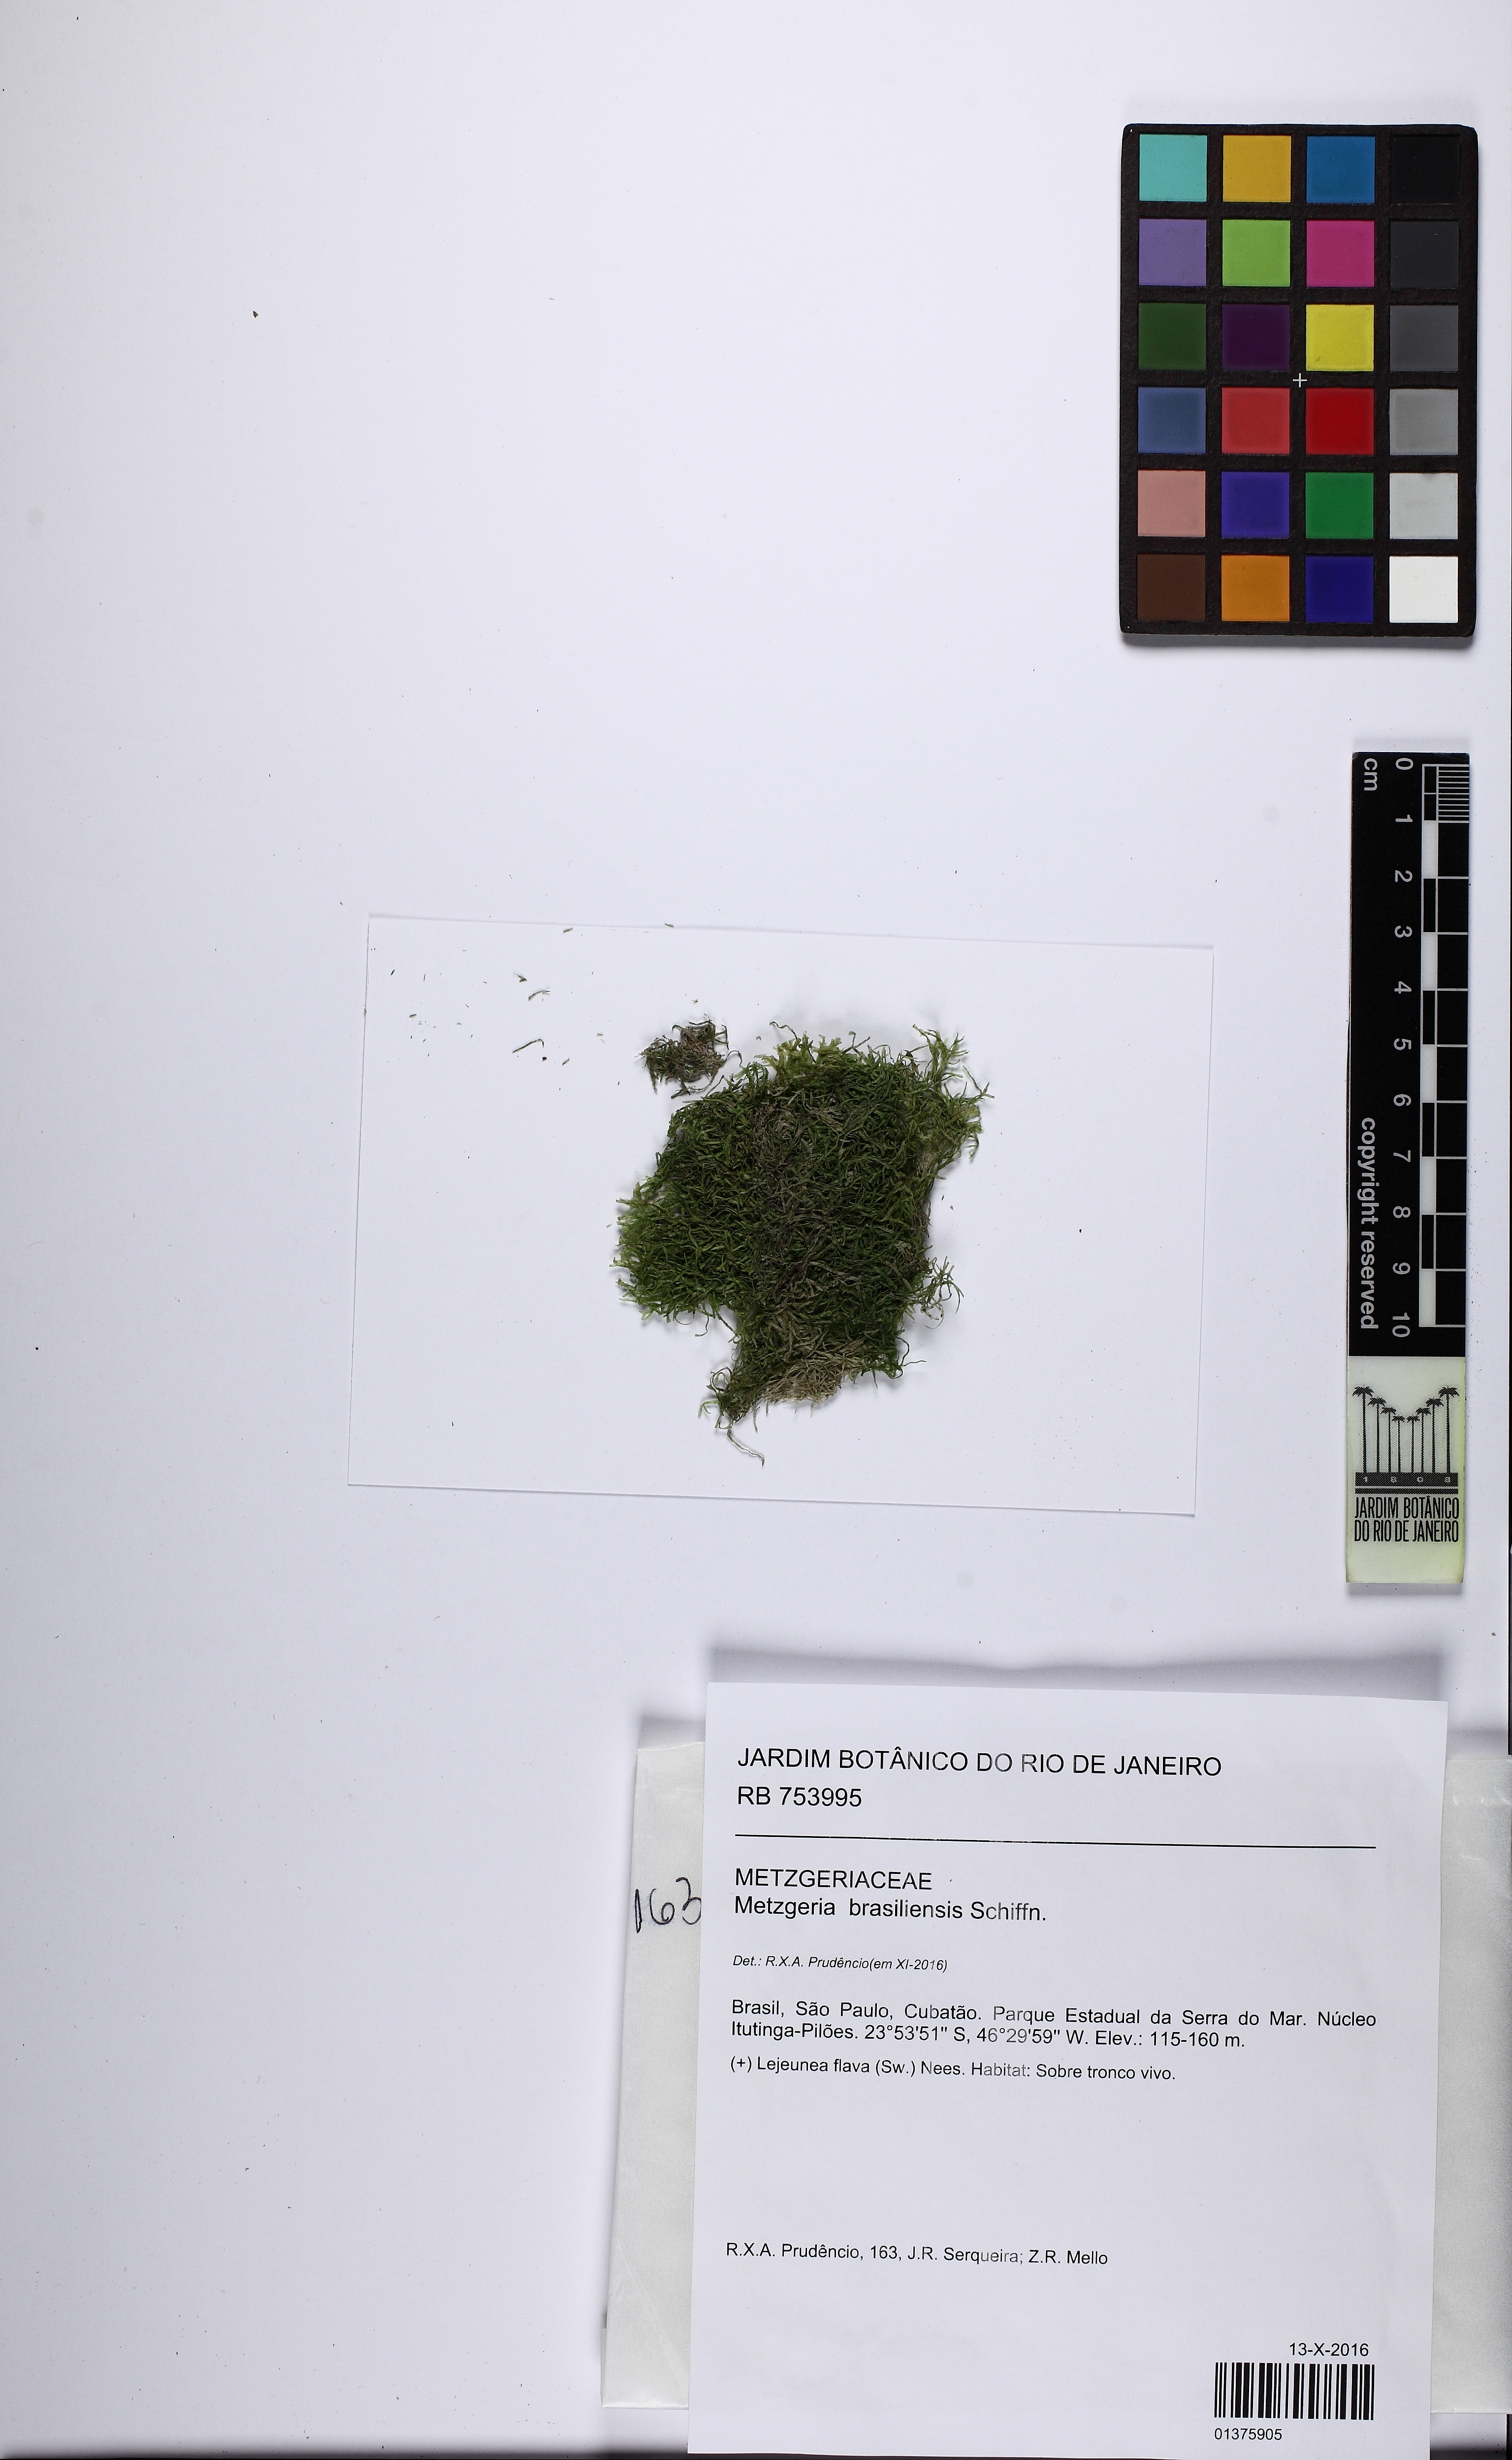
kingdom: Plantae
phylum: Marchantiophyta
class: Jungermanniopsida
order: Metzgeriales
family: Metzgeriaceae
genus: Metzgeria
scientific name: Metzgeria brasiliensis
